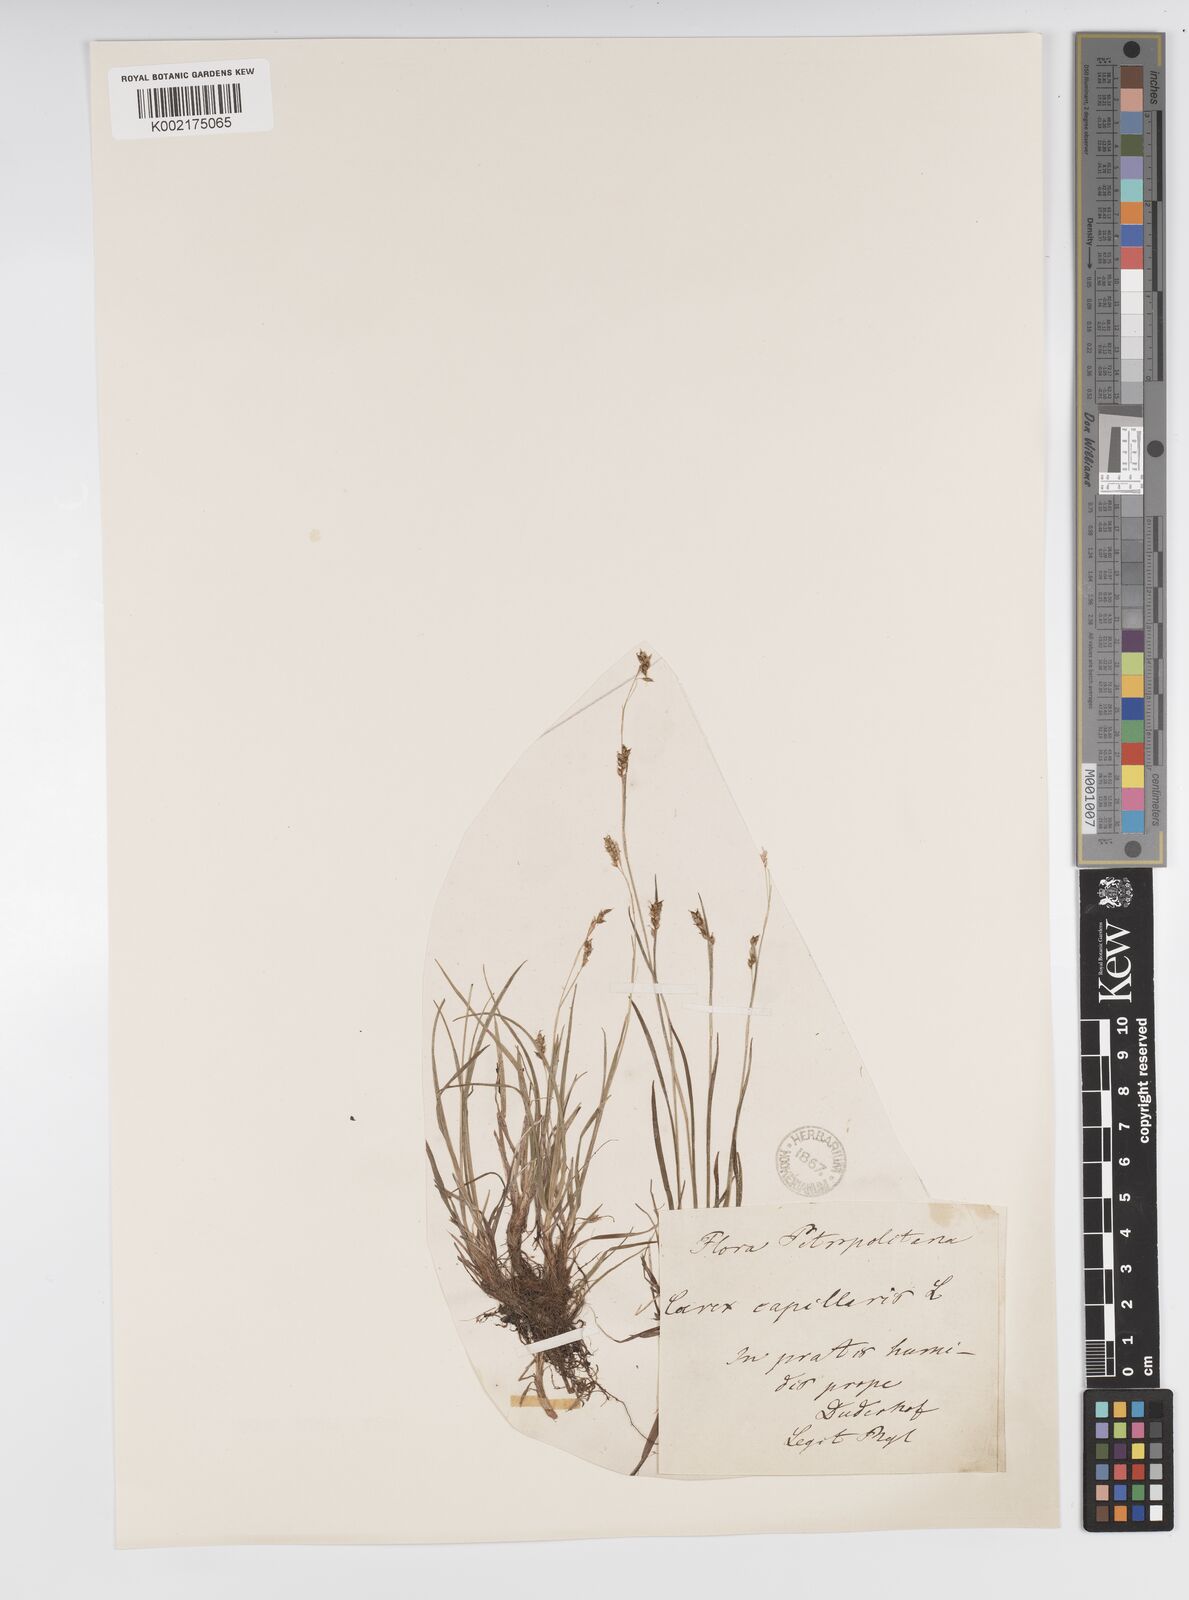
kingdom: Plantae
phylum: Tracheophyta
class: Liliopsida
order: Poales
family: Cyperaceae
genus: Carex
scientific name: Carex capillaris
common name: Hair sedge
